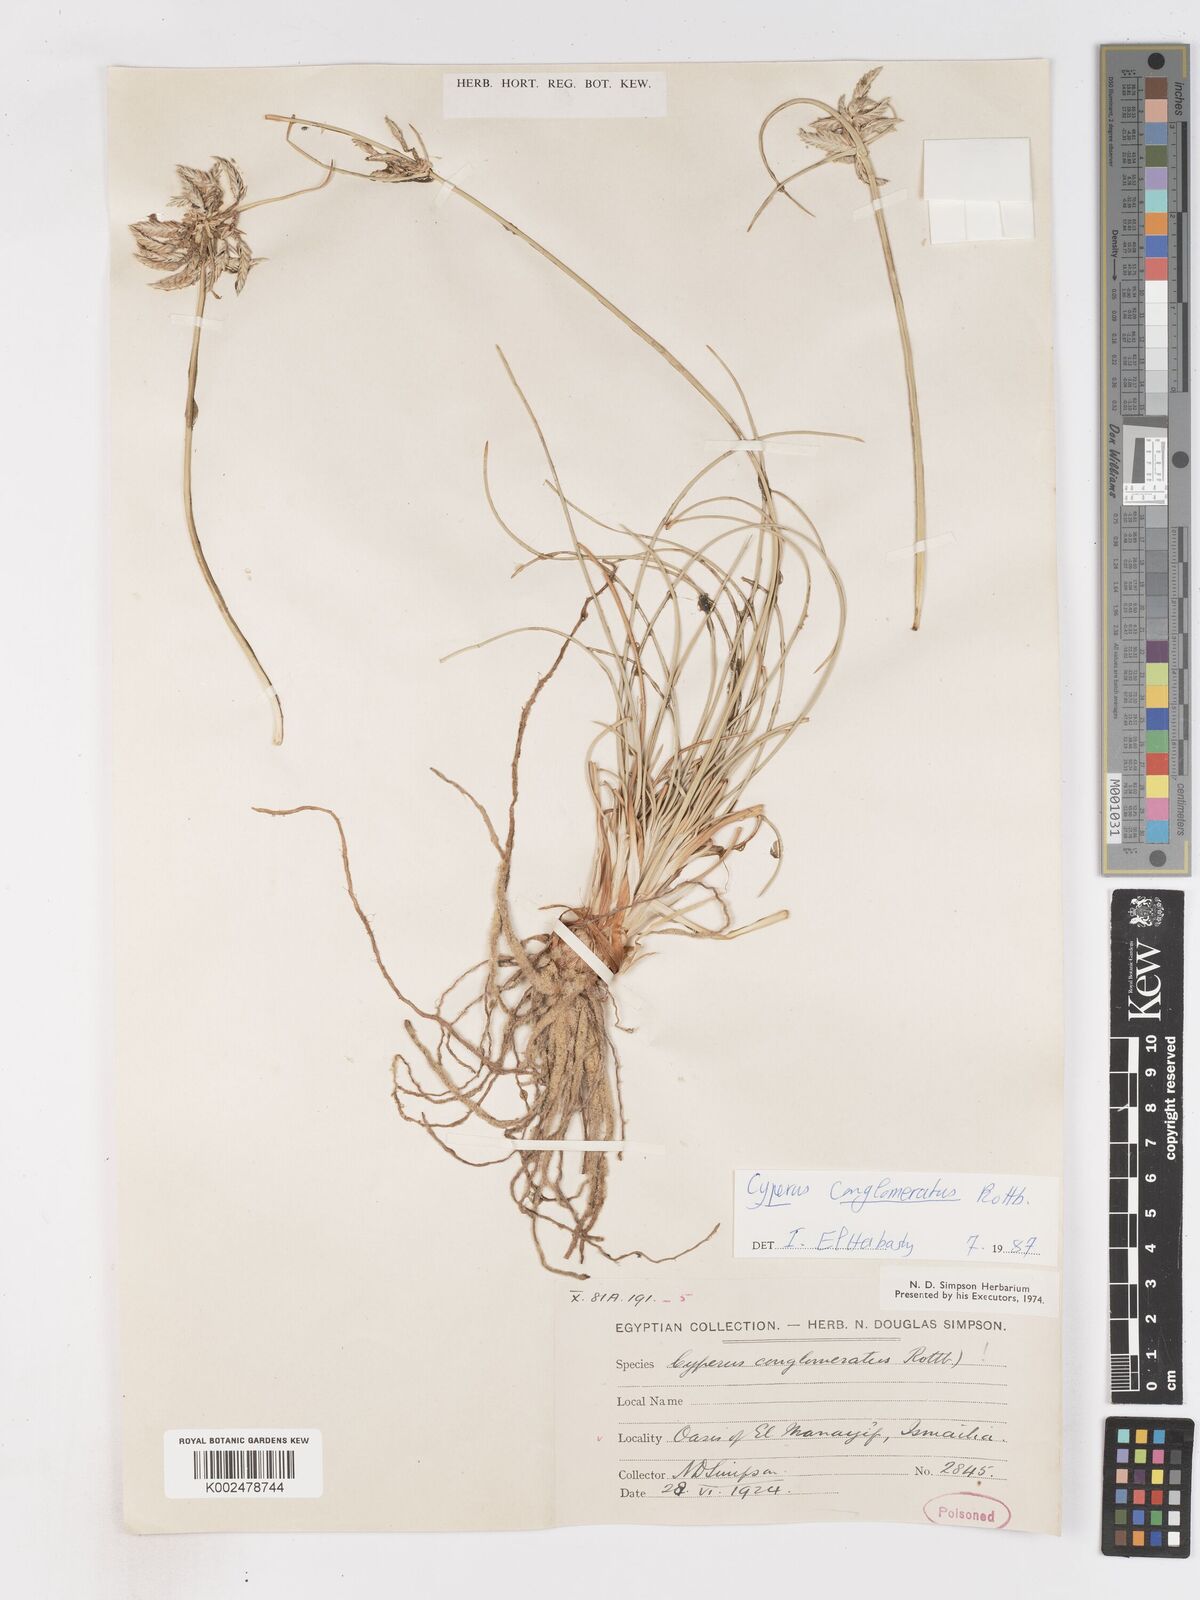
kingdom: Plantae
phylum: Tracheophyta
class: Liliopsida
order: Poales
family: Cyperaceae
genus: Cyperus
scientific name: Cyperus conglomeratus
